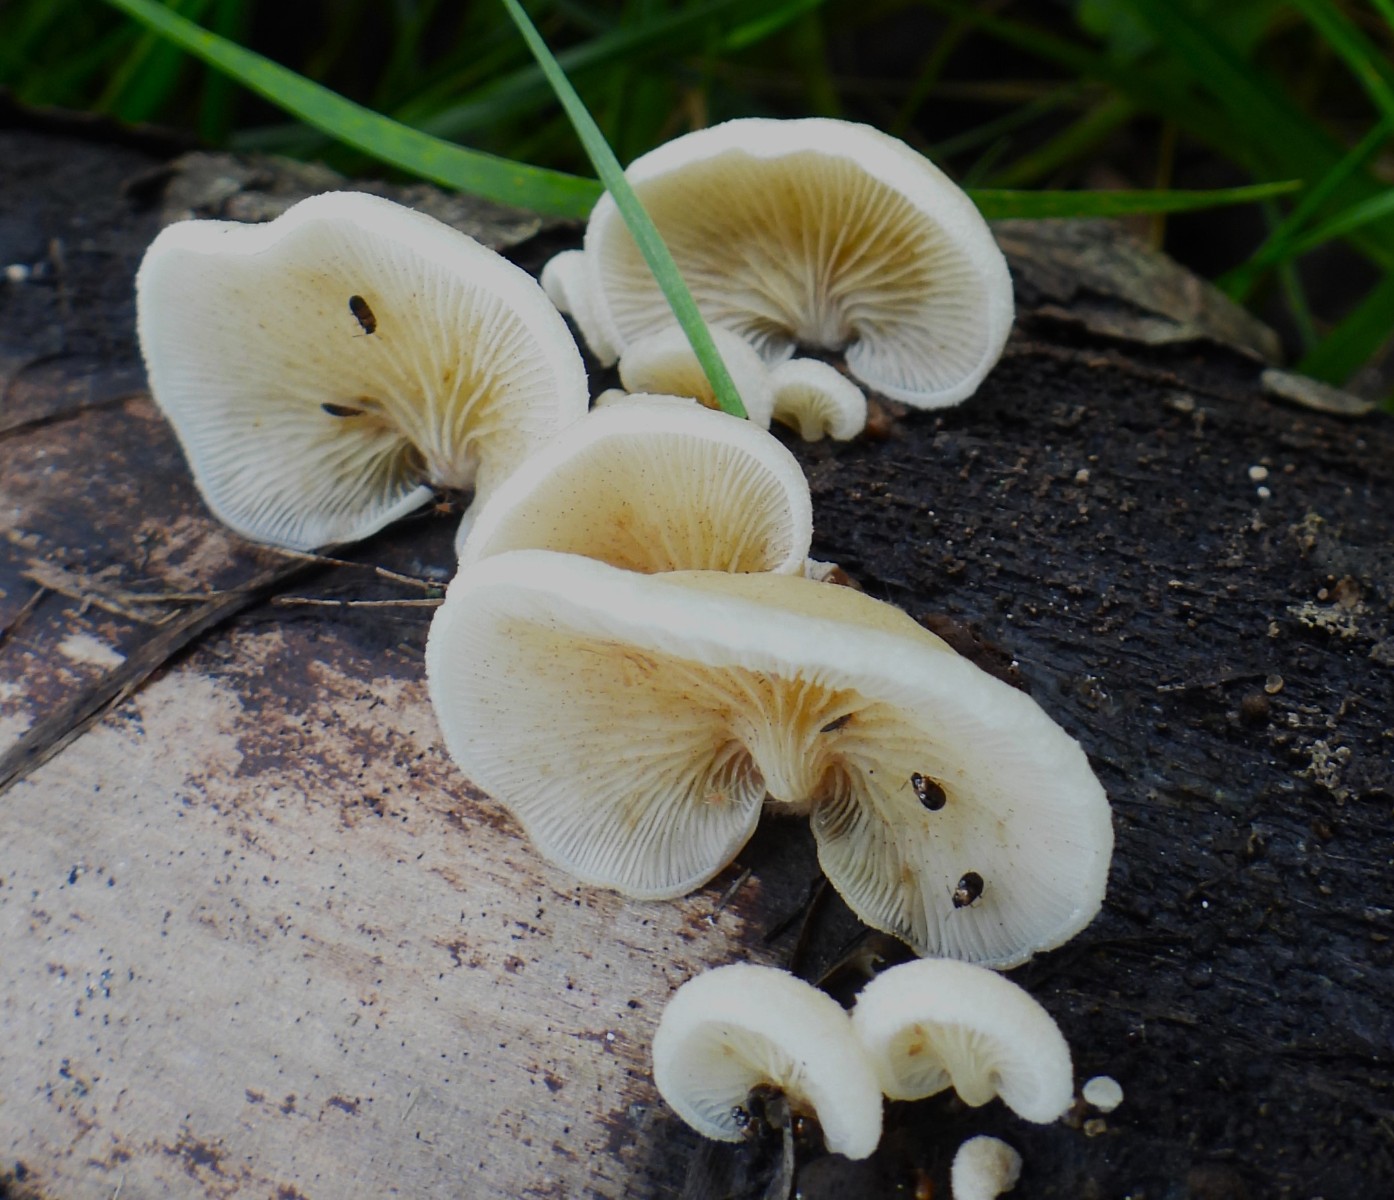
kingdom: Fungi
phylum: Basidiomycota
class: Agaricomycetes
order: Agaricales
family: Crepidotaceae
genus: Crepidotus
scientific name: Crepidotus mollis
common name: blød muslingesvamp
